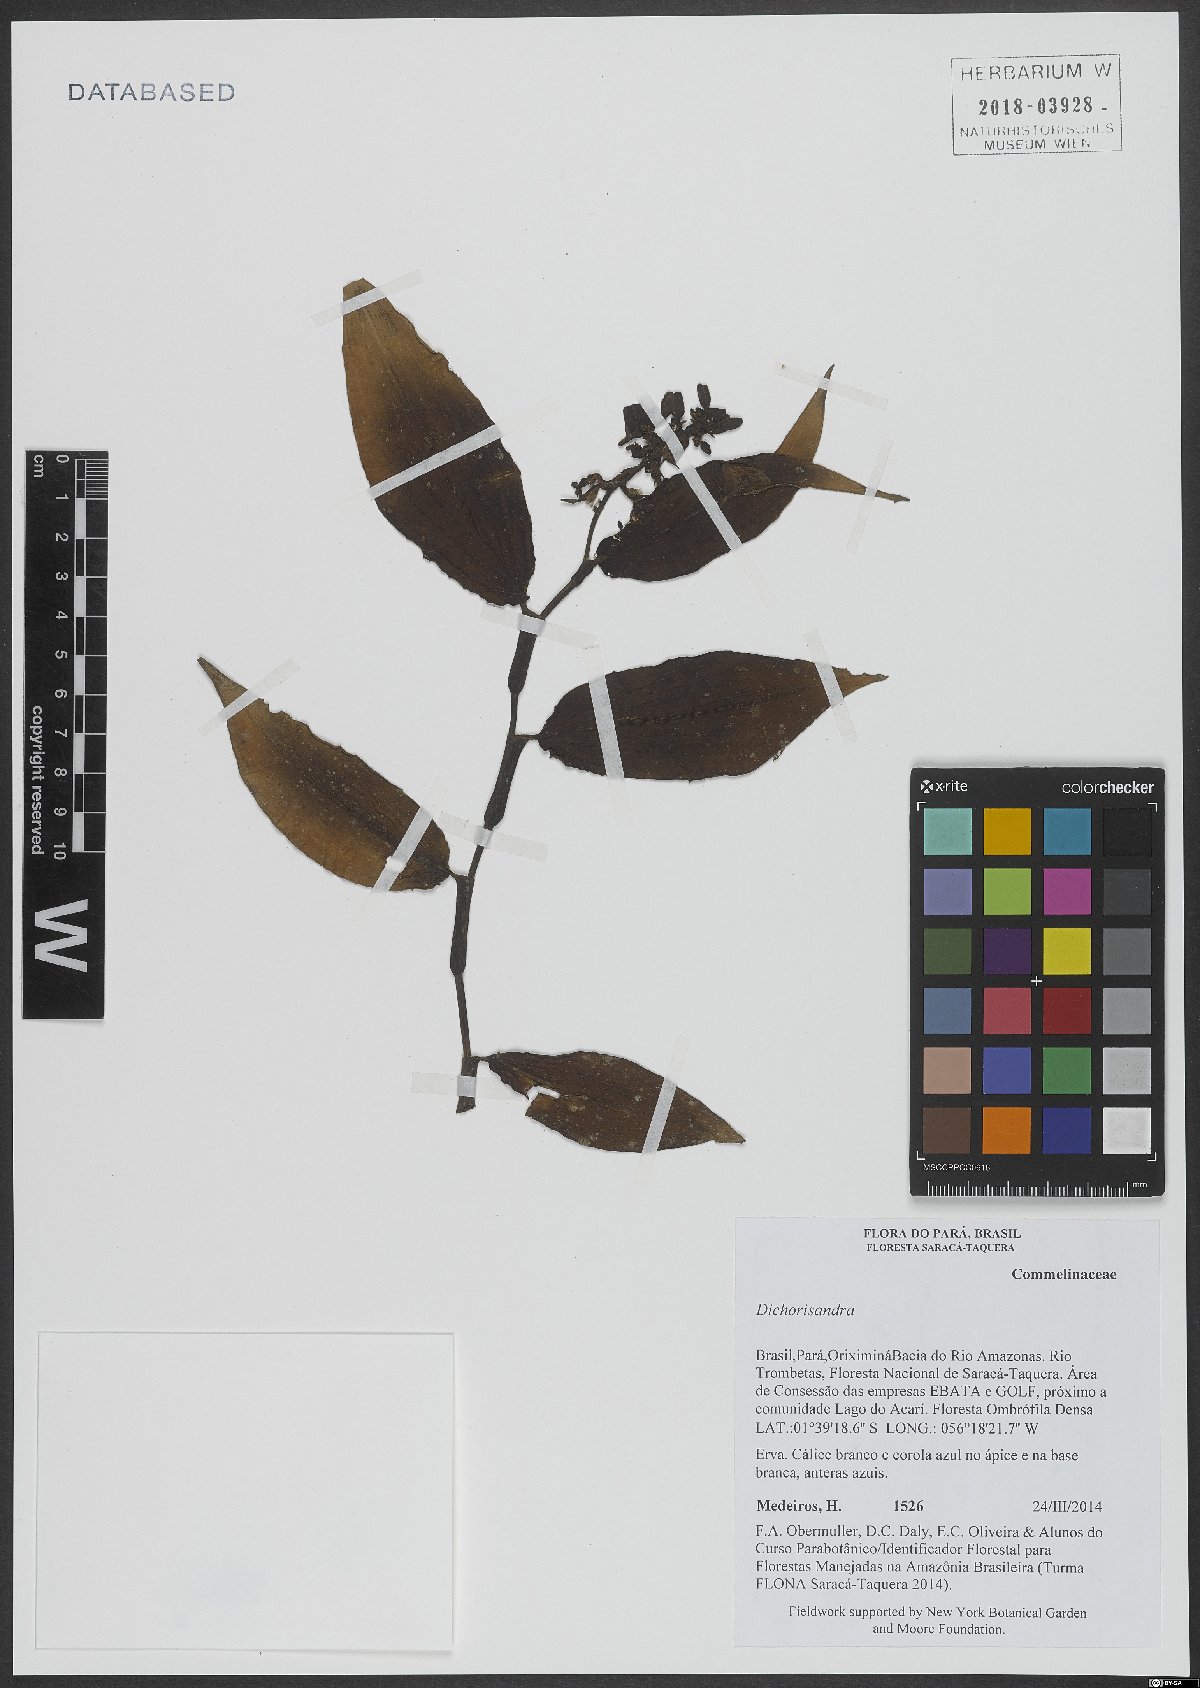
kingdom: Plantae
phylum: Tracheophyta
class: Liliopsida
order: Commelinales
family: Commelinaceae
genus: Dichorisandra
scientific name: Dichorisandra
